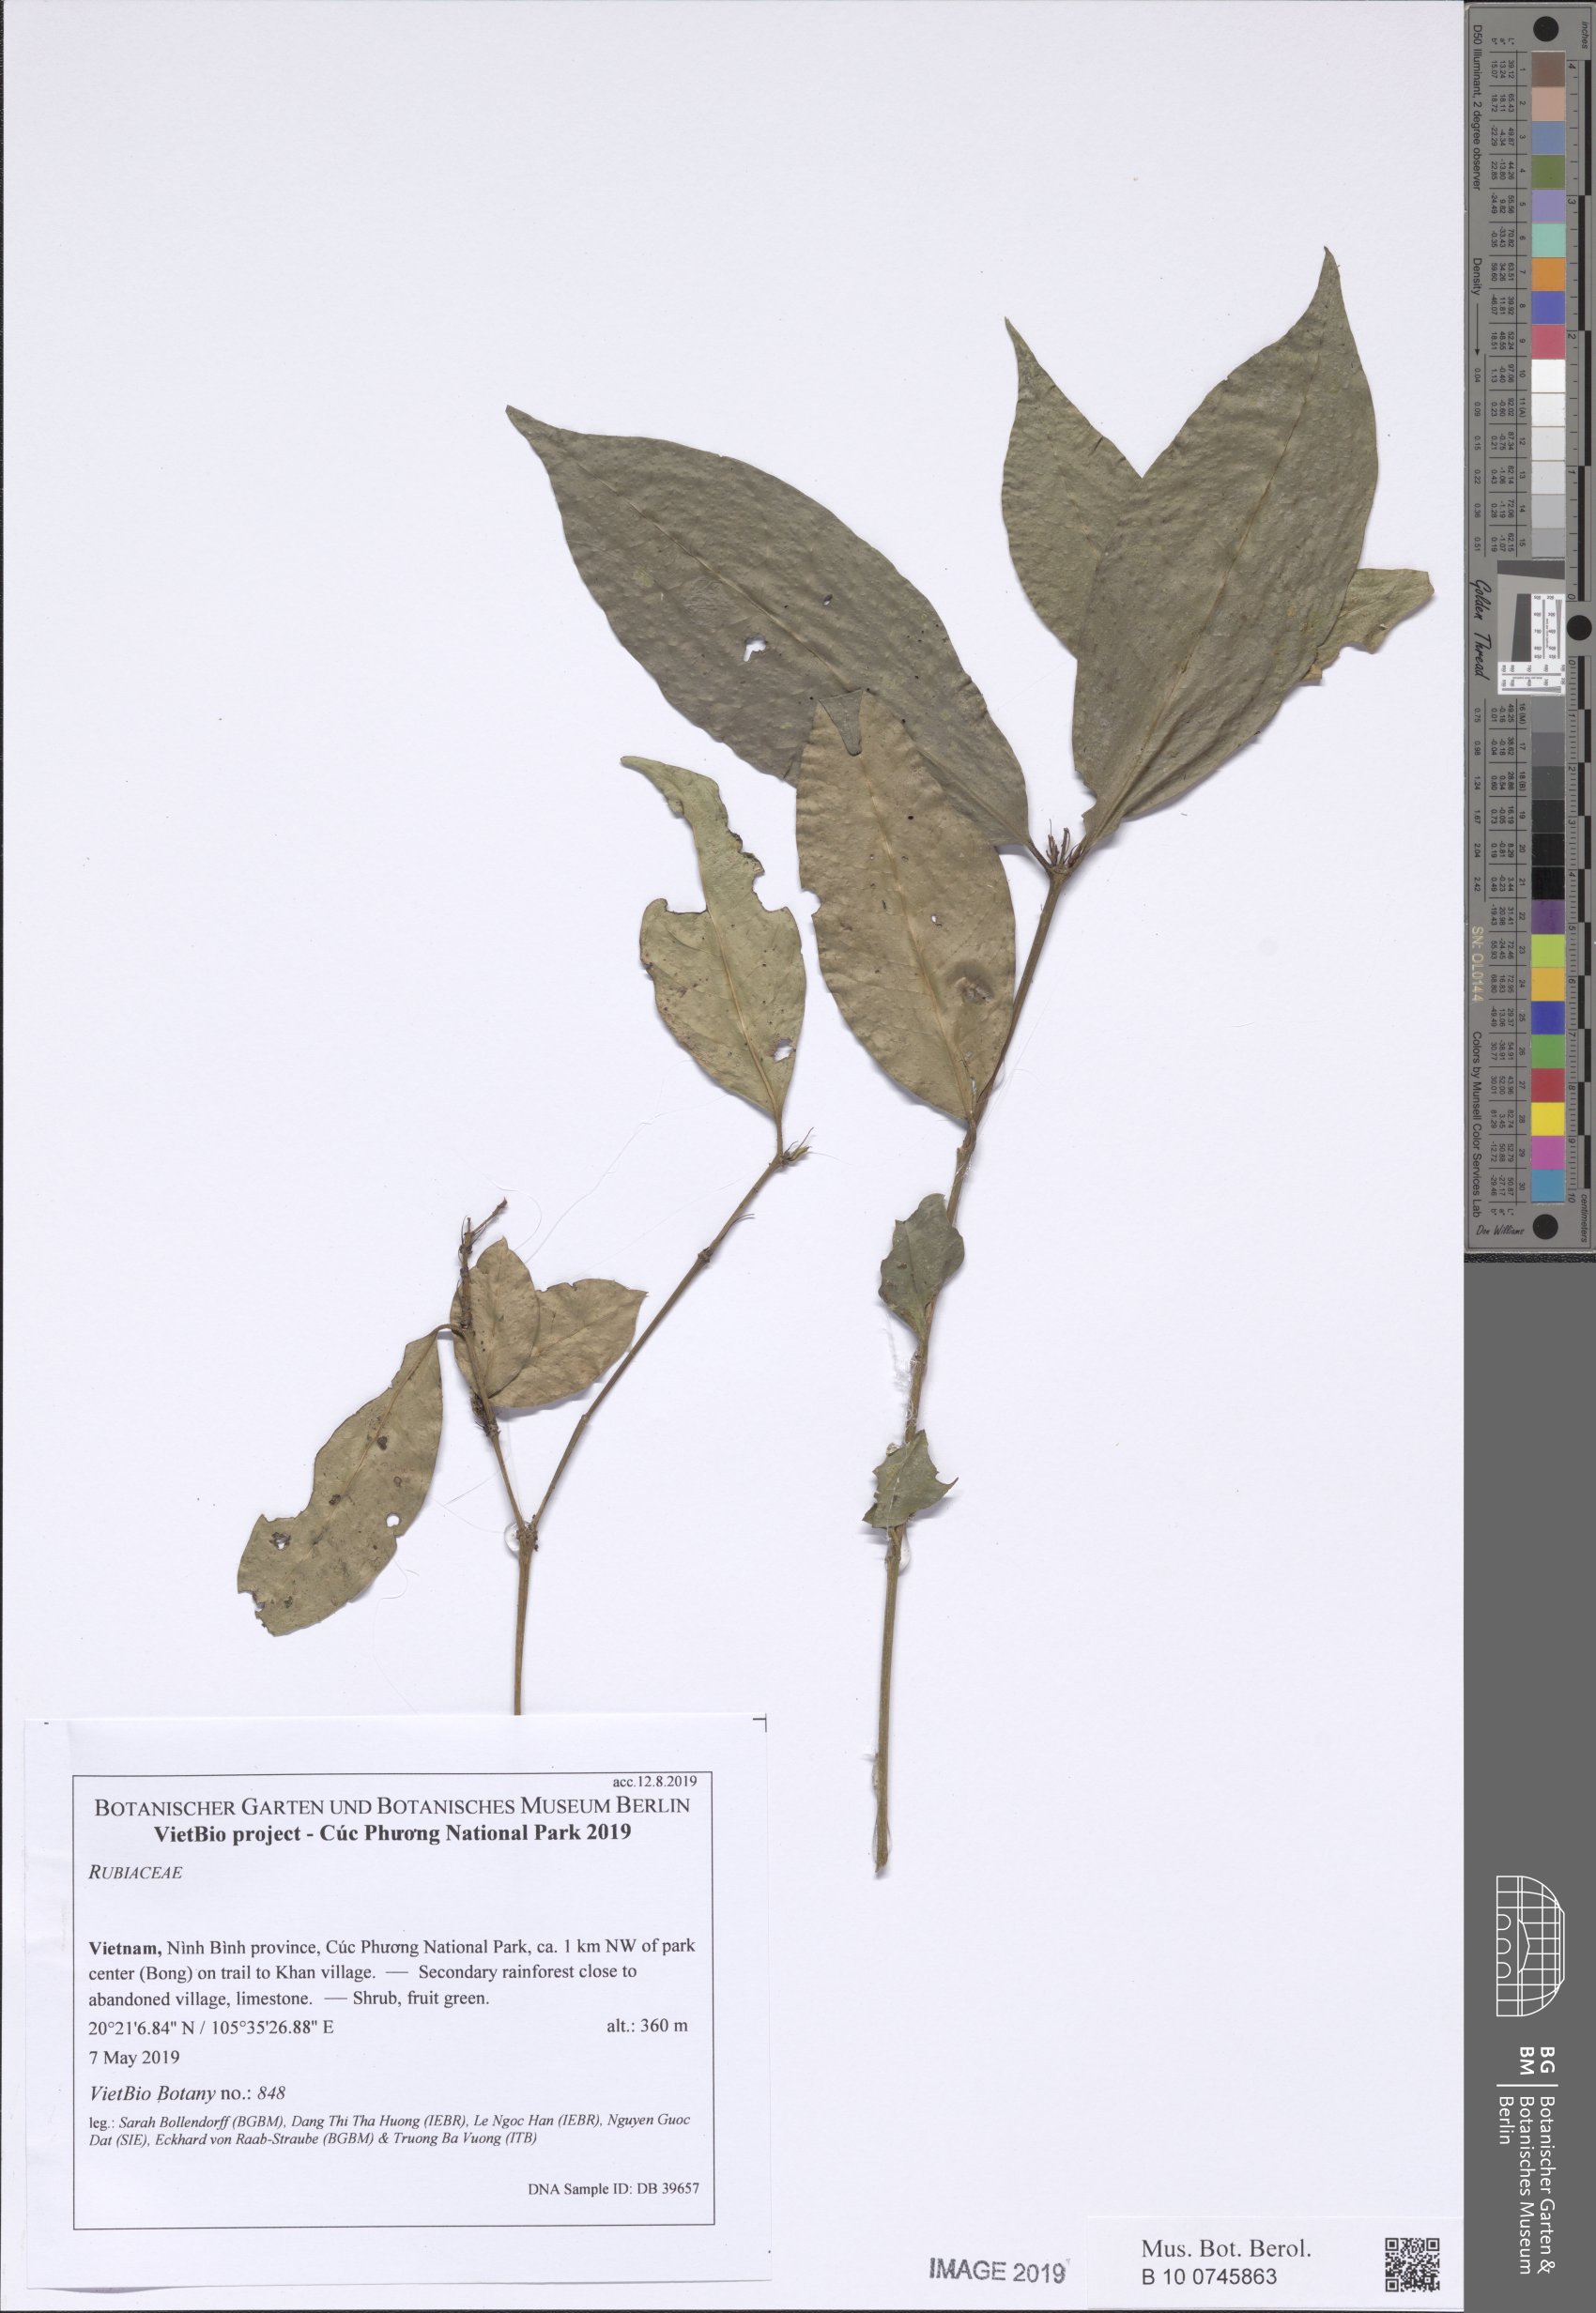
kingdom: Plantae
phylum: Tracheophyta
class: Magnoliopsida
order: Gentianales
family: Rubiaceae
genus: Ixora
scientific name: Ixora
